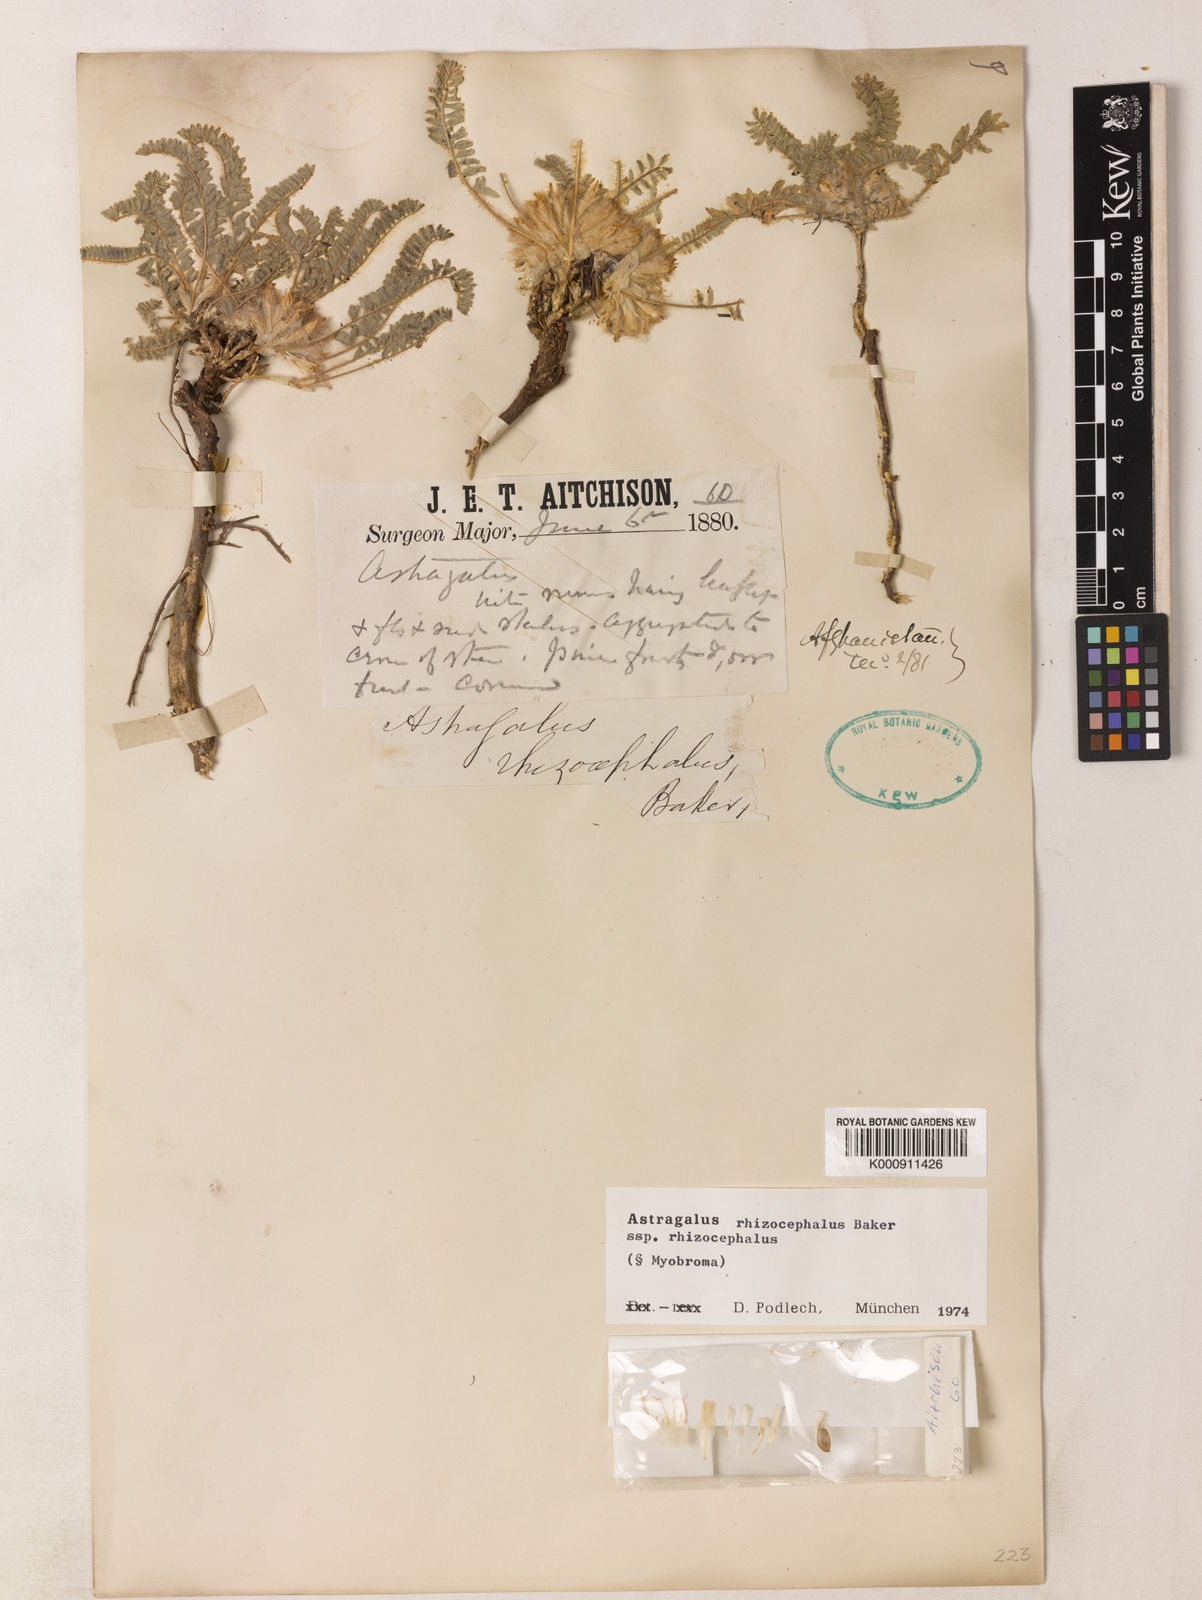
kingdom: Plantae
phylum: Tracheophyta
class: Magnoliopsida
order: Fabales
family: Fabaceae
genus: Astragalus
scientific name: Astragalus
